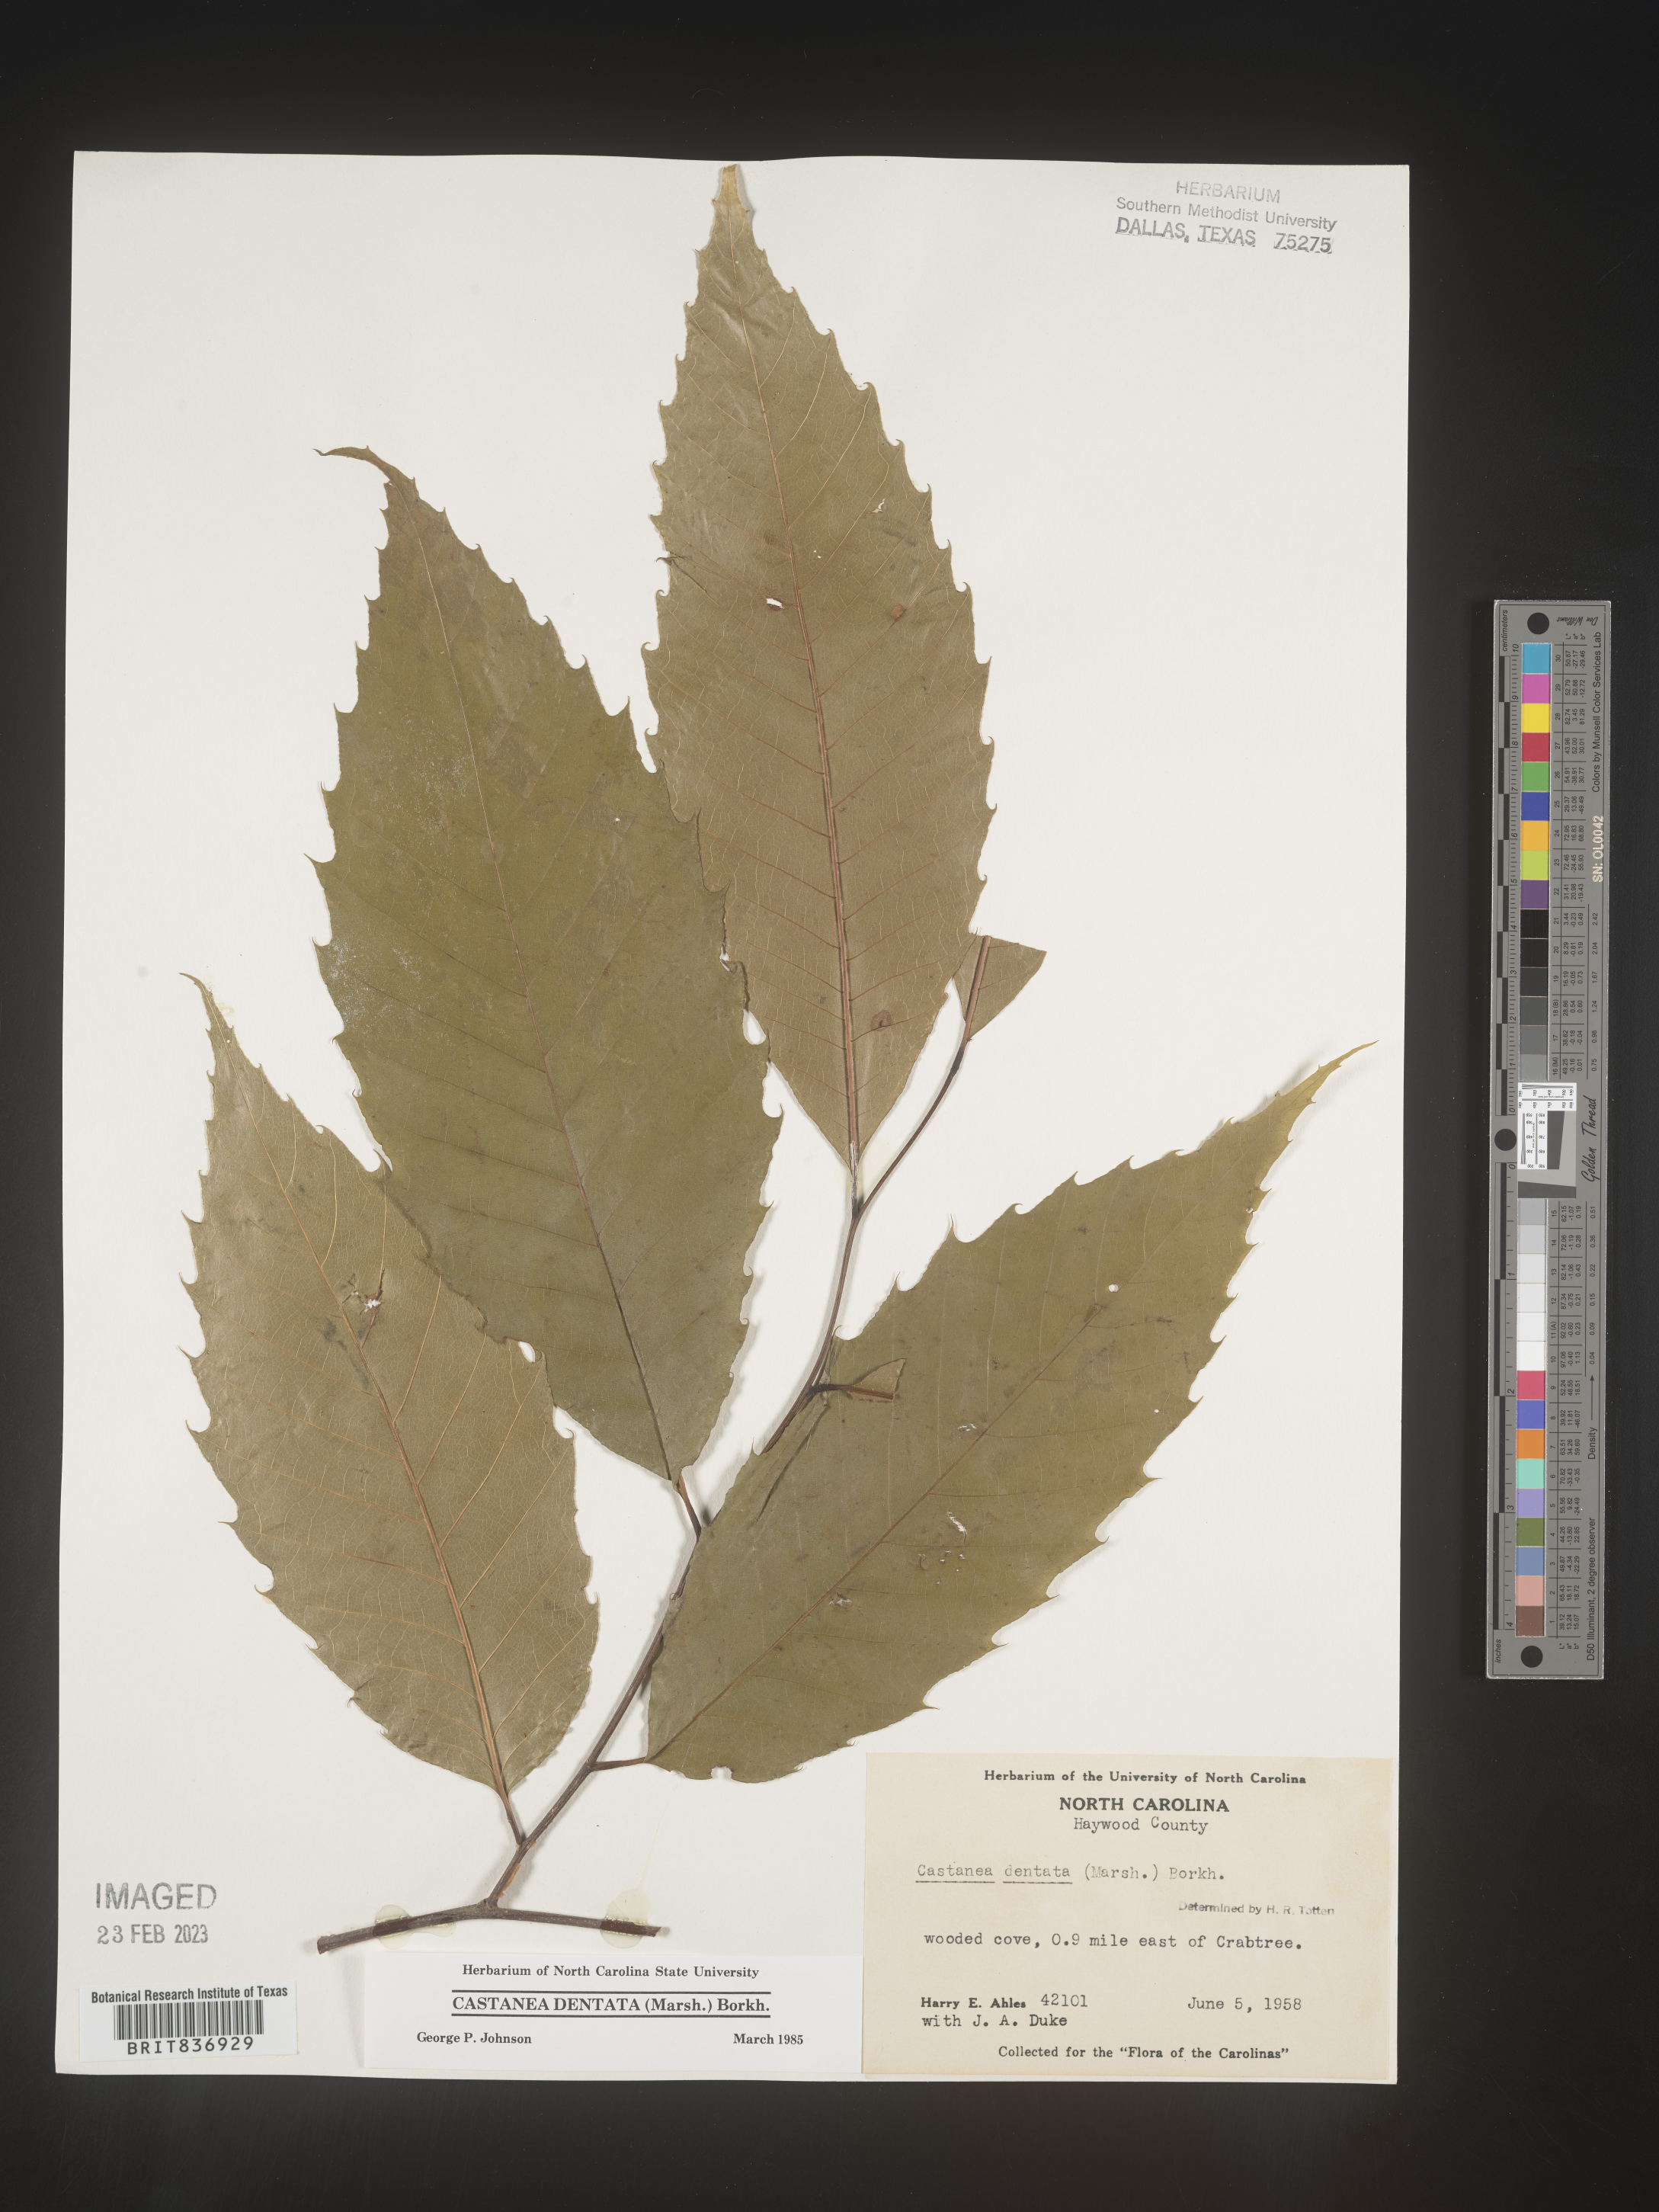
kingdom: Plantae
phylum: Tracheophyta
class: Magnoliopsida
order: Fagales
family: Fagaceae
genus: Castanea
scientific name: Castanea dentata
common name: American chestnut
